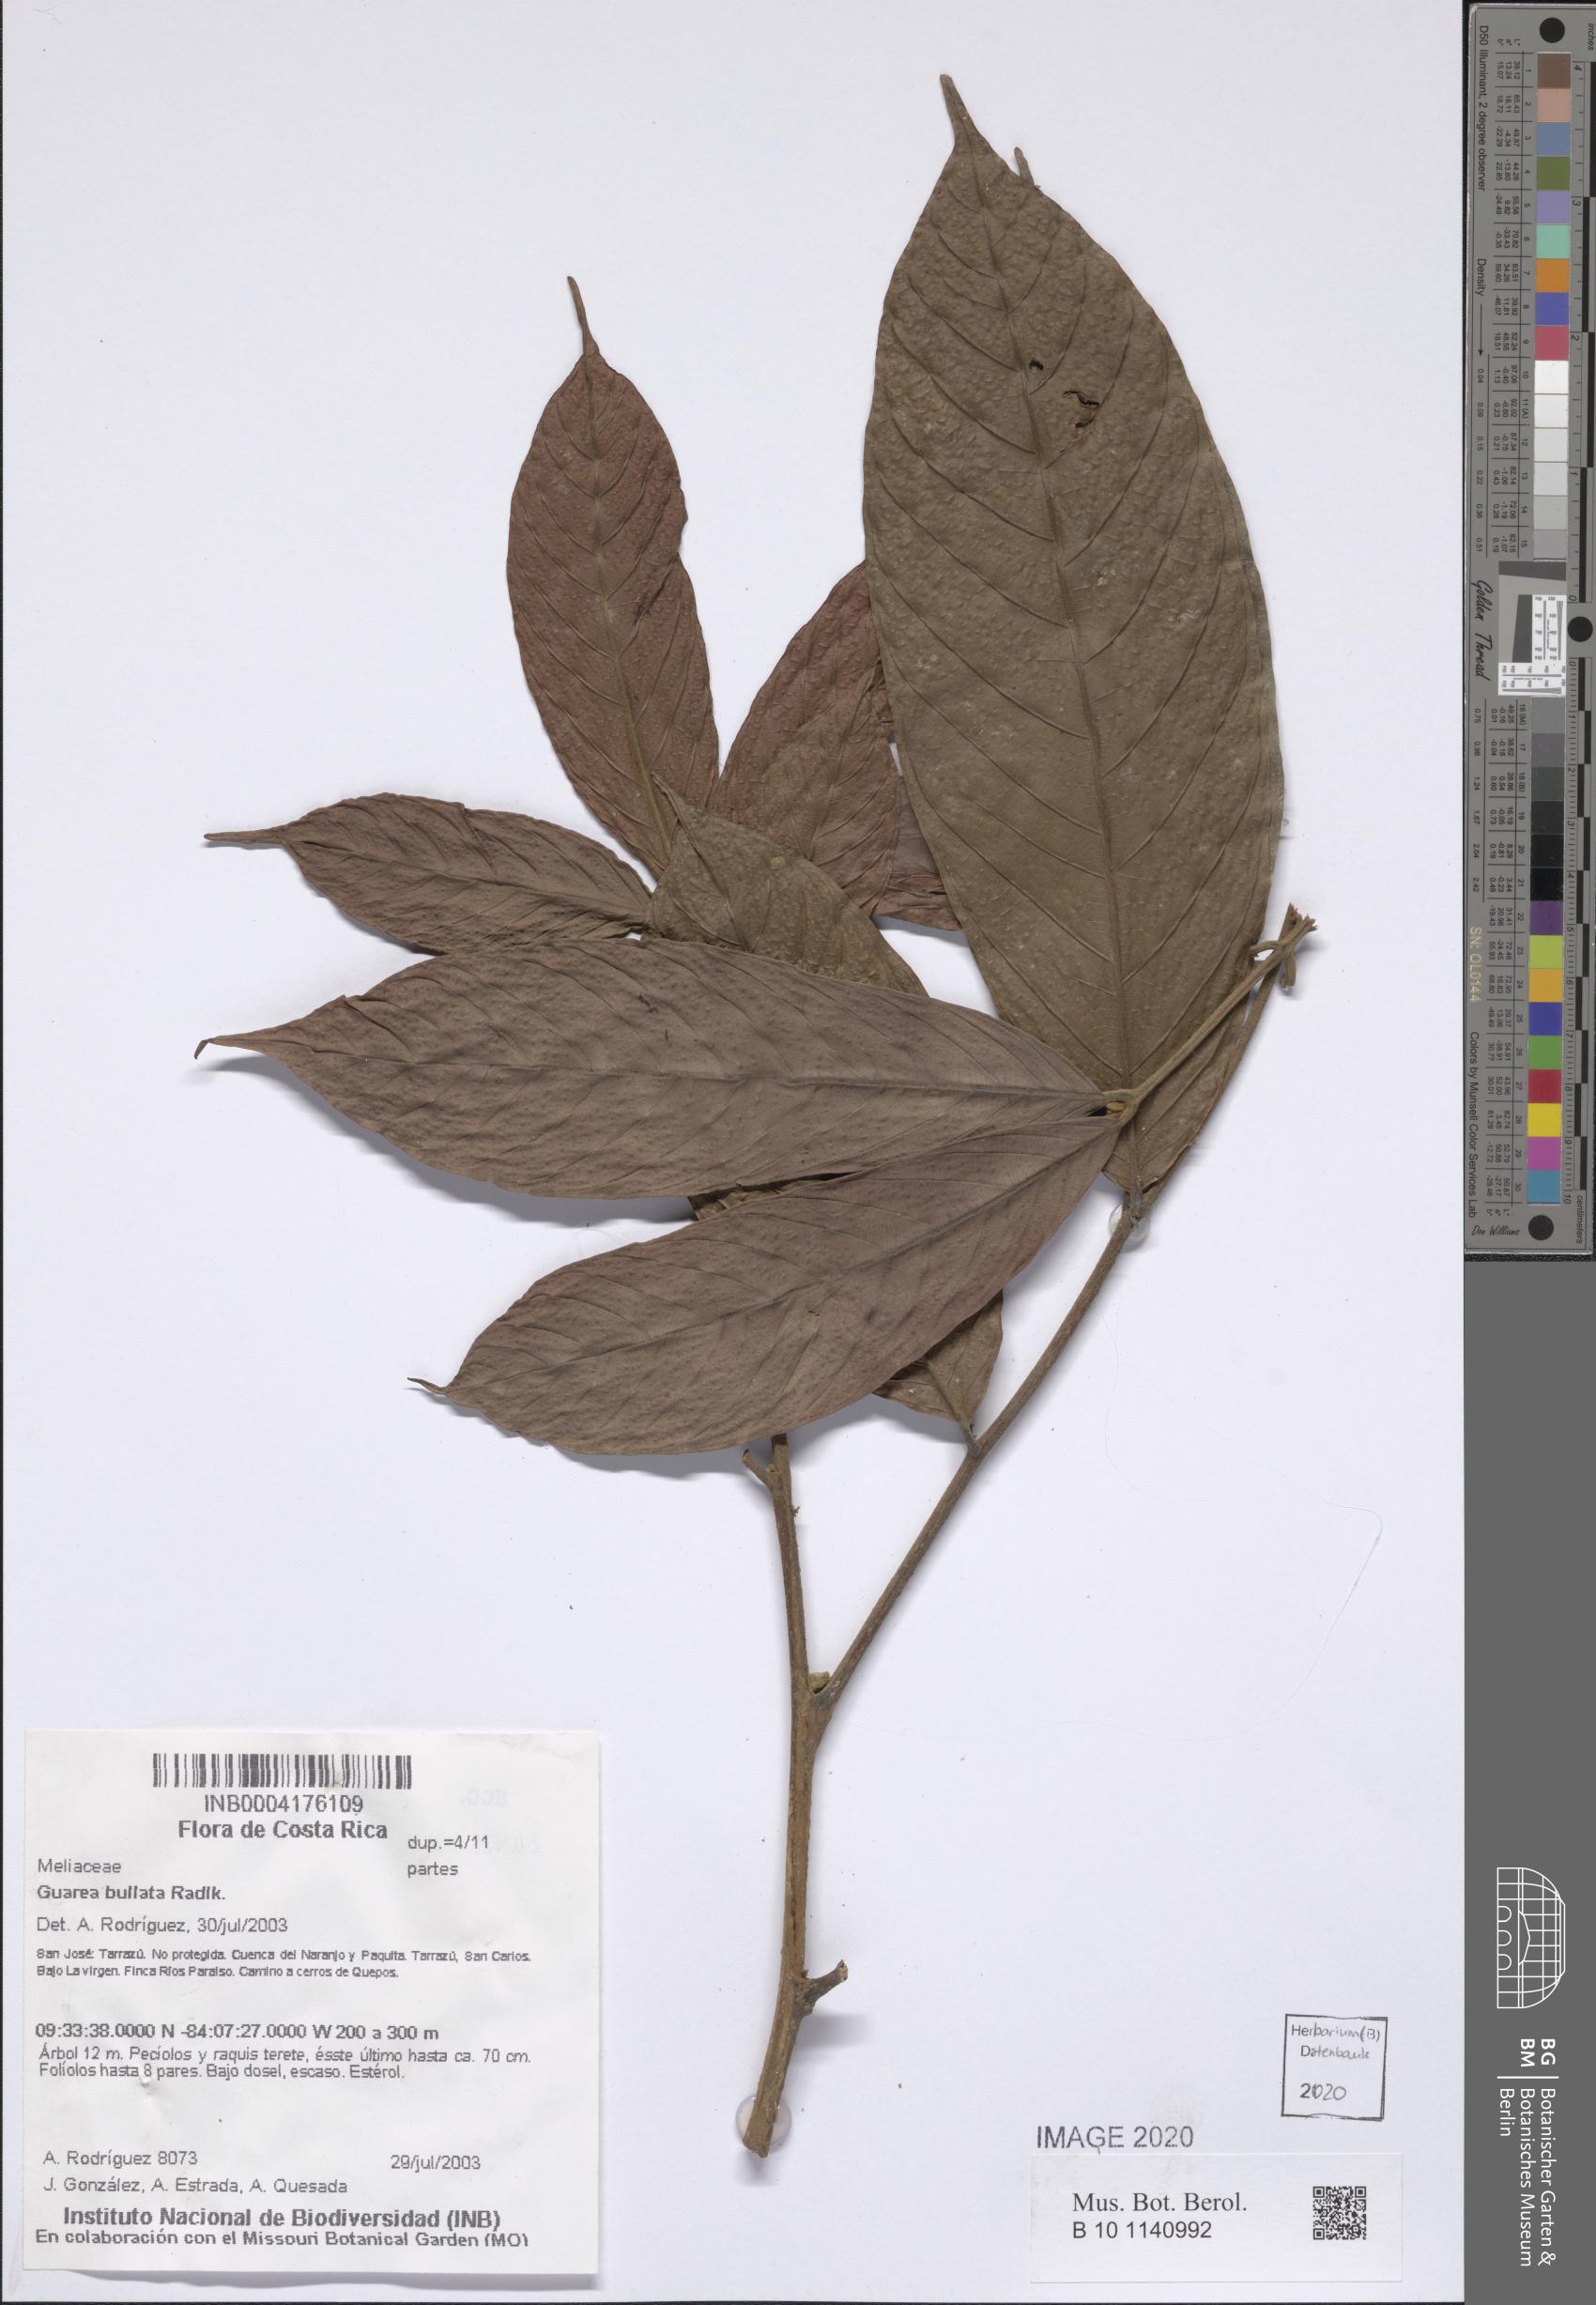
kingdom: Plantae
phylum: Tracheophyta
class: Magnoliopsida
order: Sapindales
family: Meliaceae
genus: Guarea
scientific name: Guarea glabra
